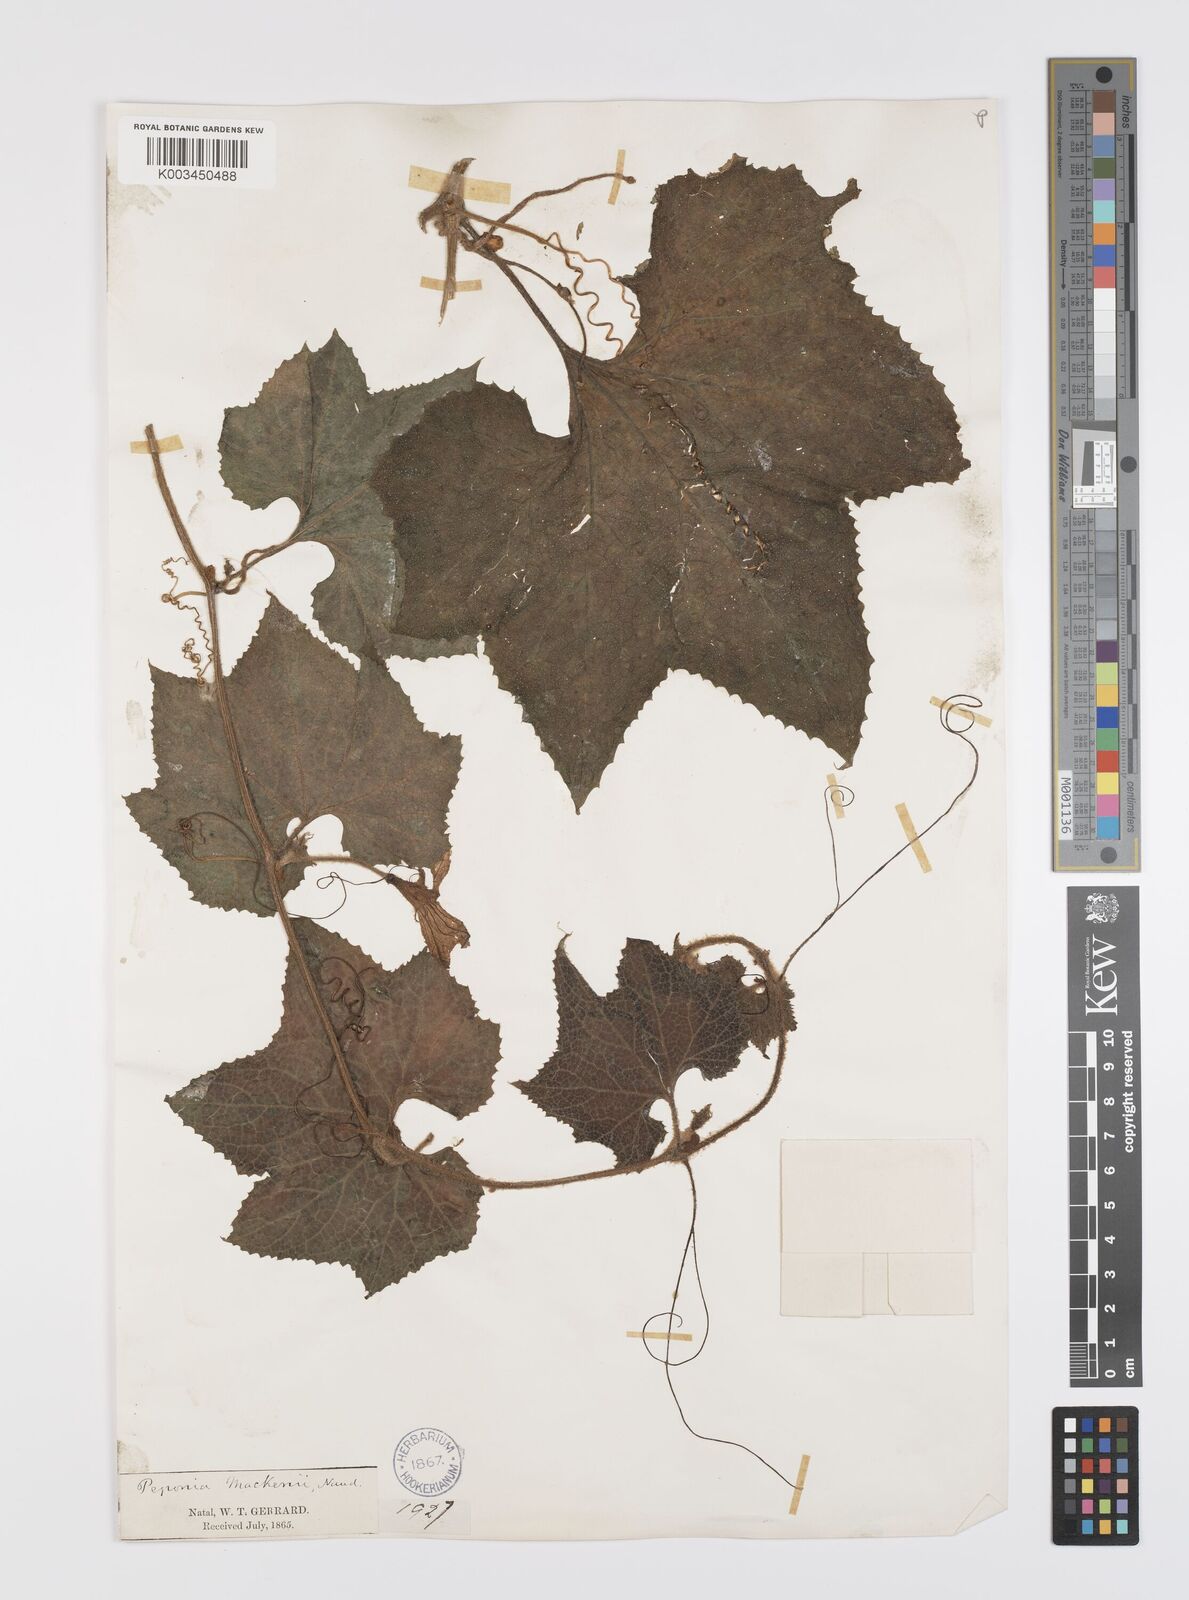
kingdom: Plantae
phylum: Tracheophyta
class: Magnoliopsida
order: Cucurbitales
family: Cucurbitaceae
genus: Peponium
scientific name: Peponium mackenii
